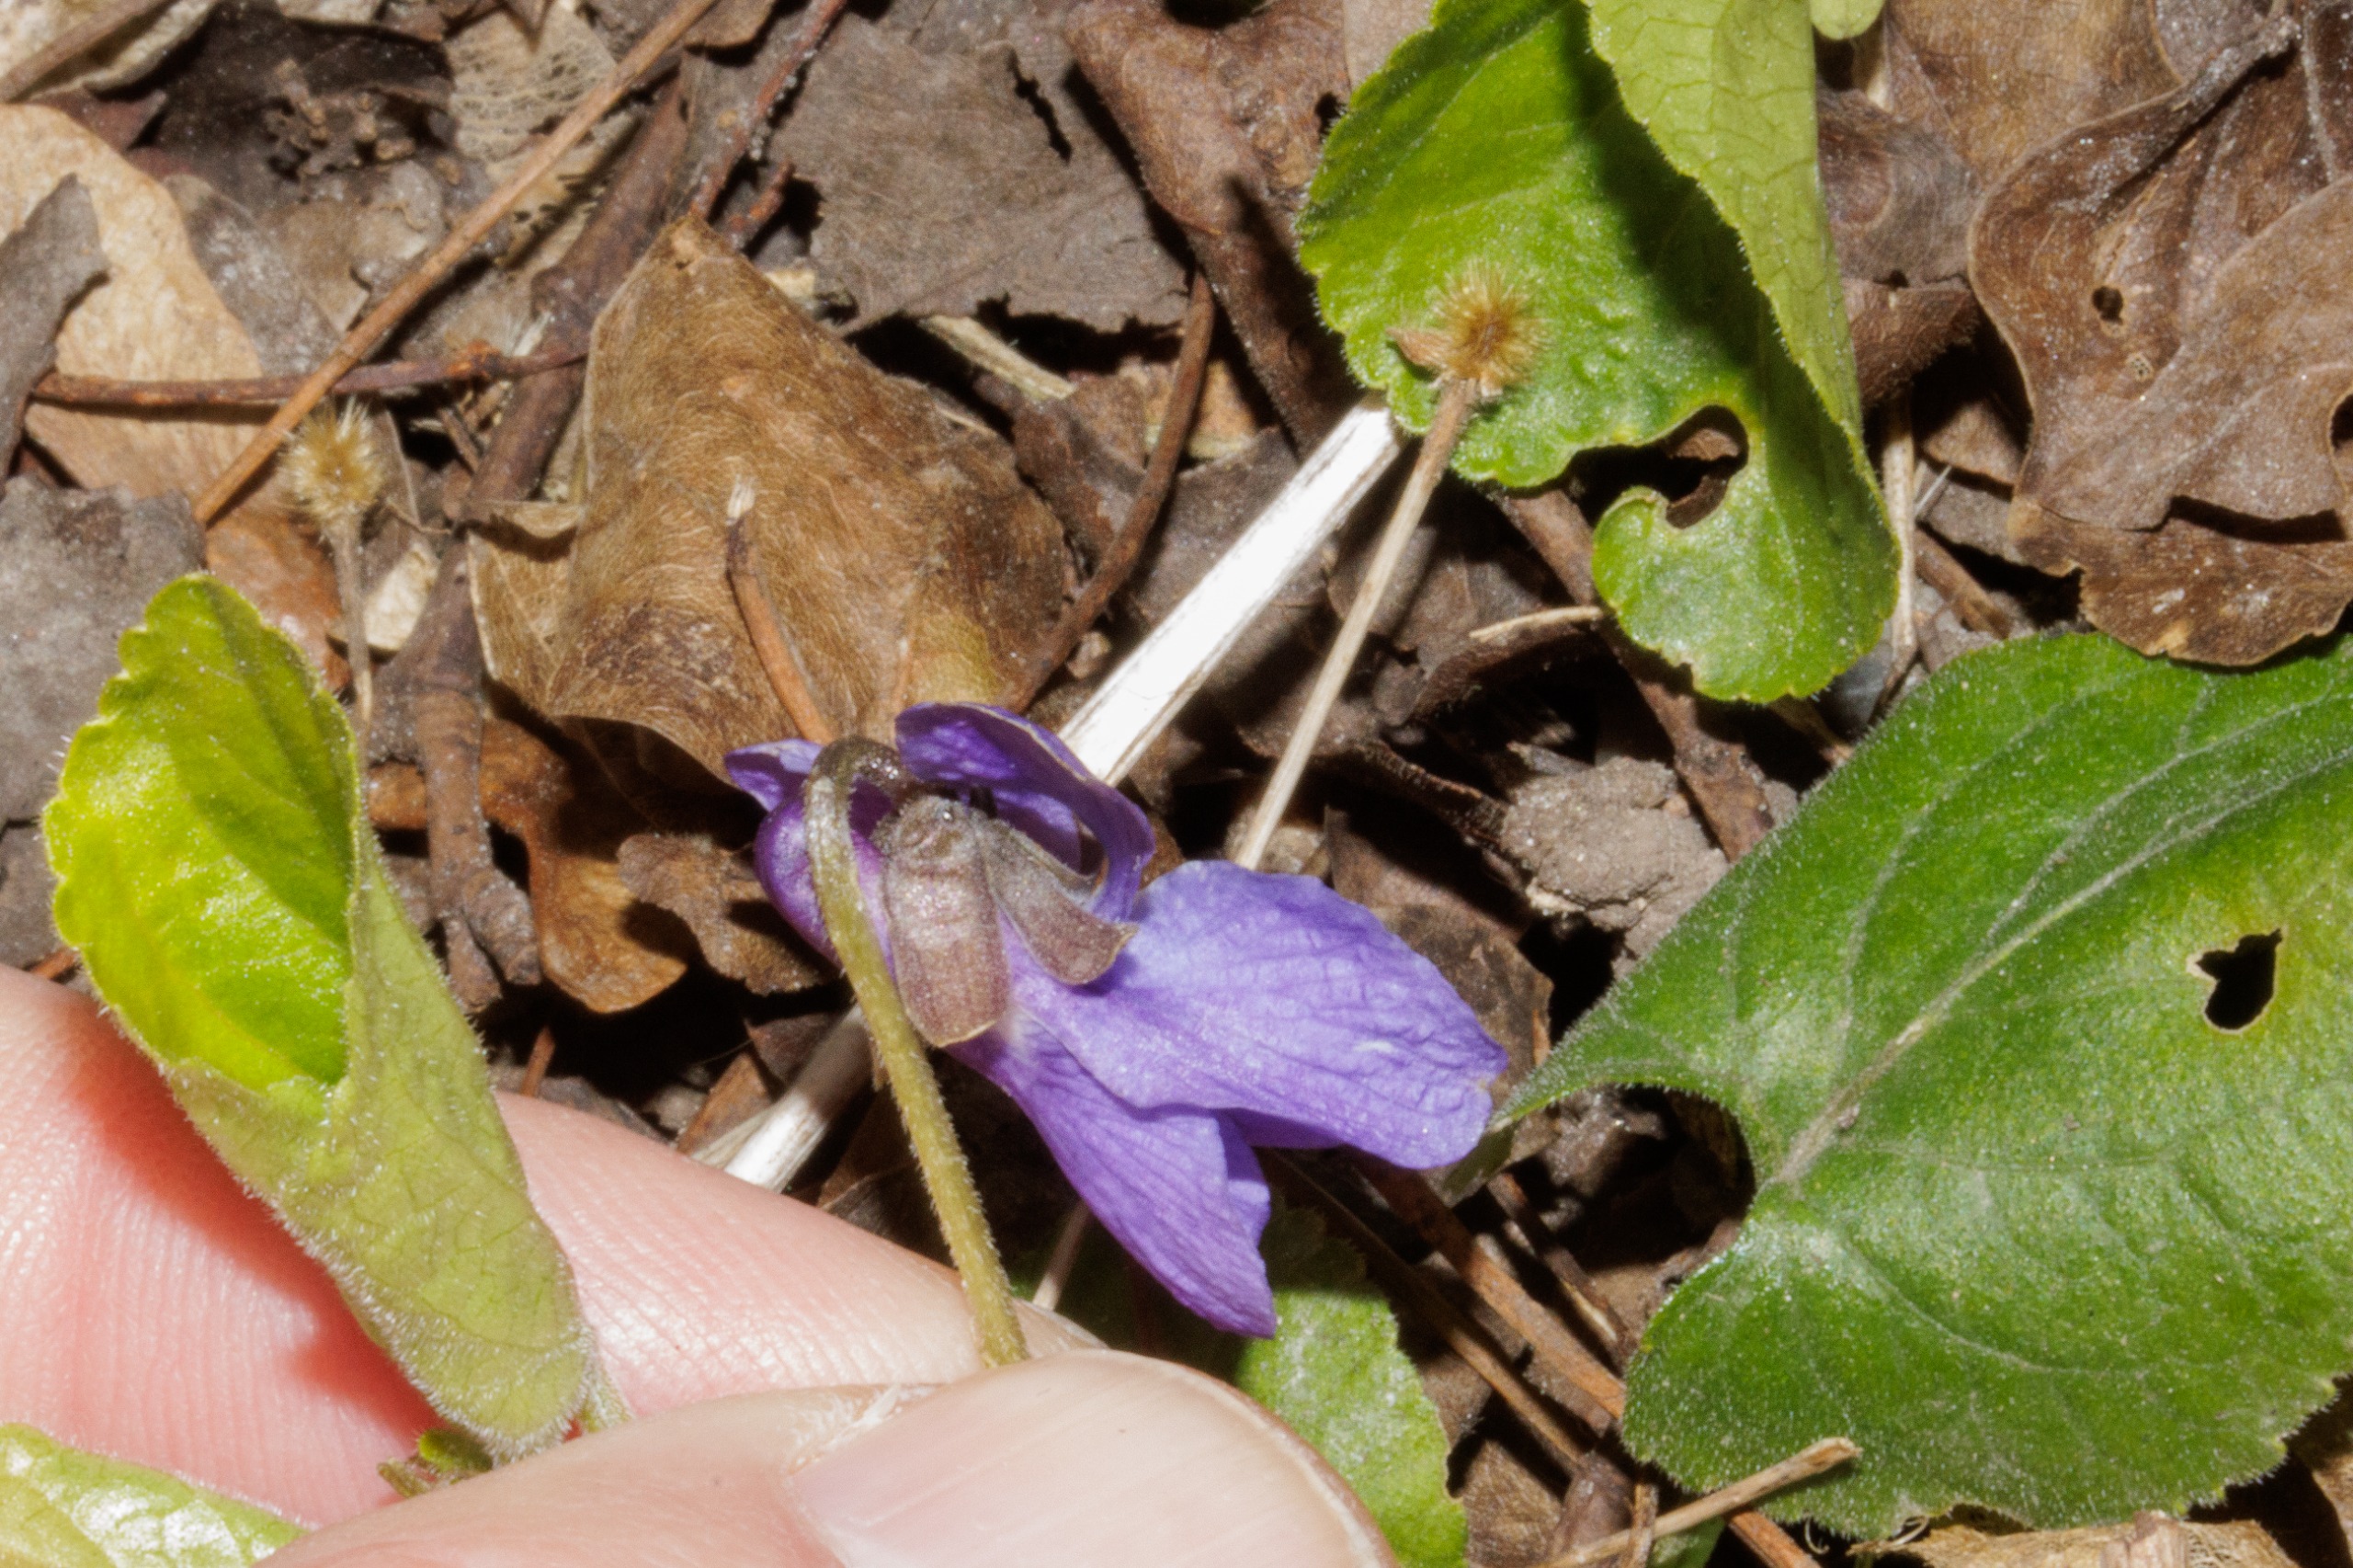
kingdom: Plantae
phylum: Tracheophyta
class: Magnoliopsida
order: Malpighiales
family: Violaceae
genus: Viola
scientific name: Viola odorata
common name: Marts-viol
